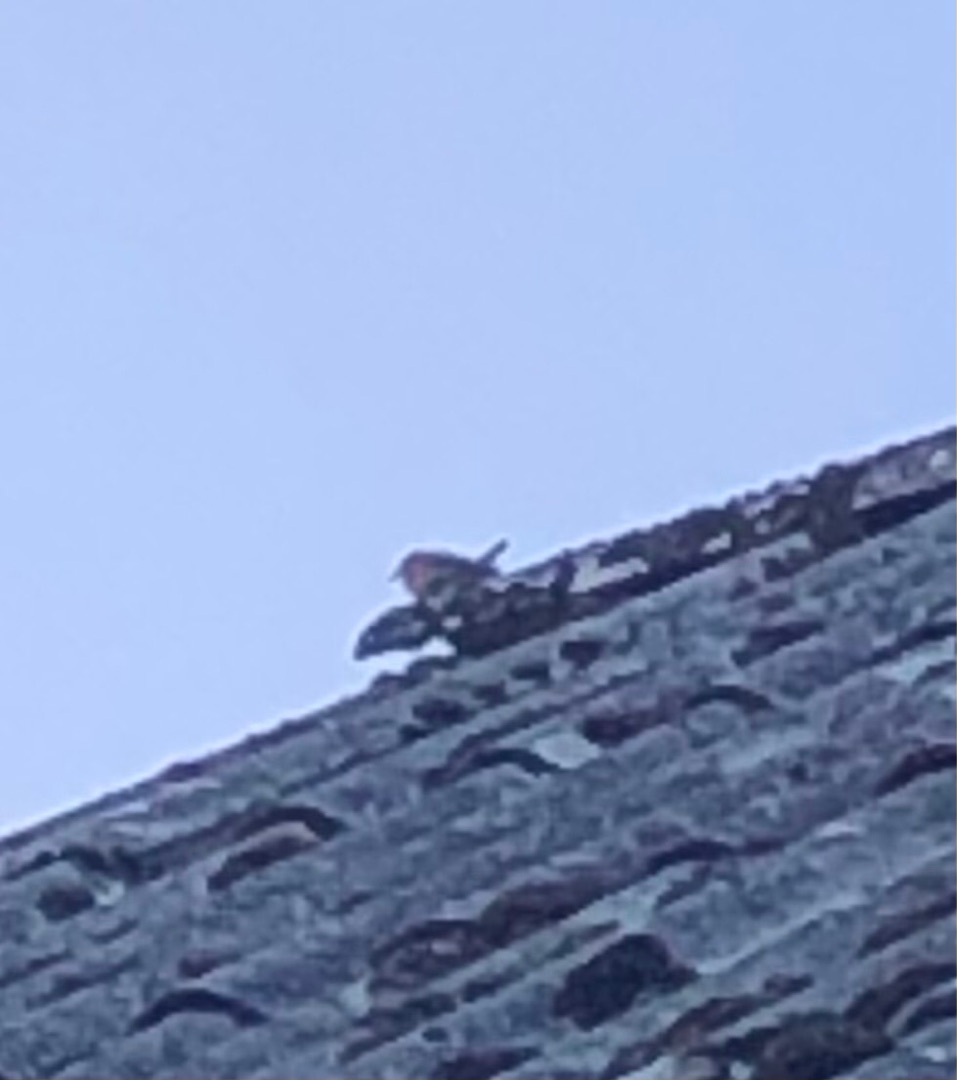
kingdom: Animalia
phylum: Chordata
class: Aves
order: Passeriformes
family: Troglodytidae
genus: Troglodytes
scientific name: Troglodytes troglodytes
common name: Gærdesmutte
